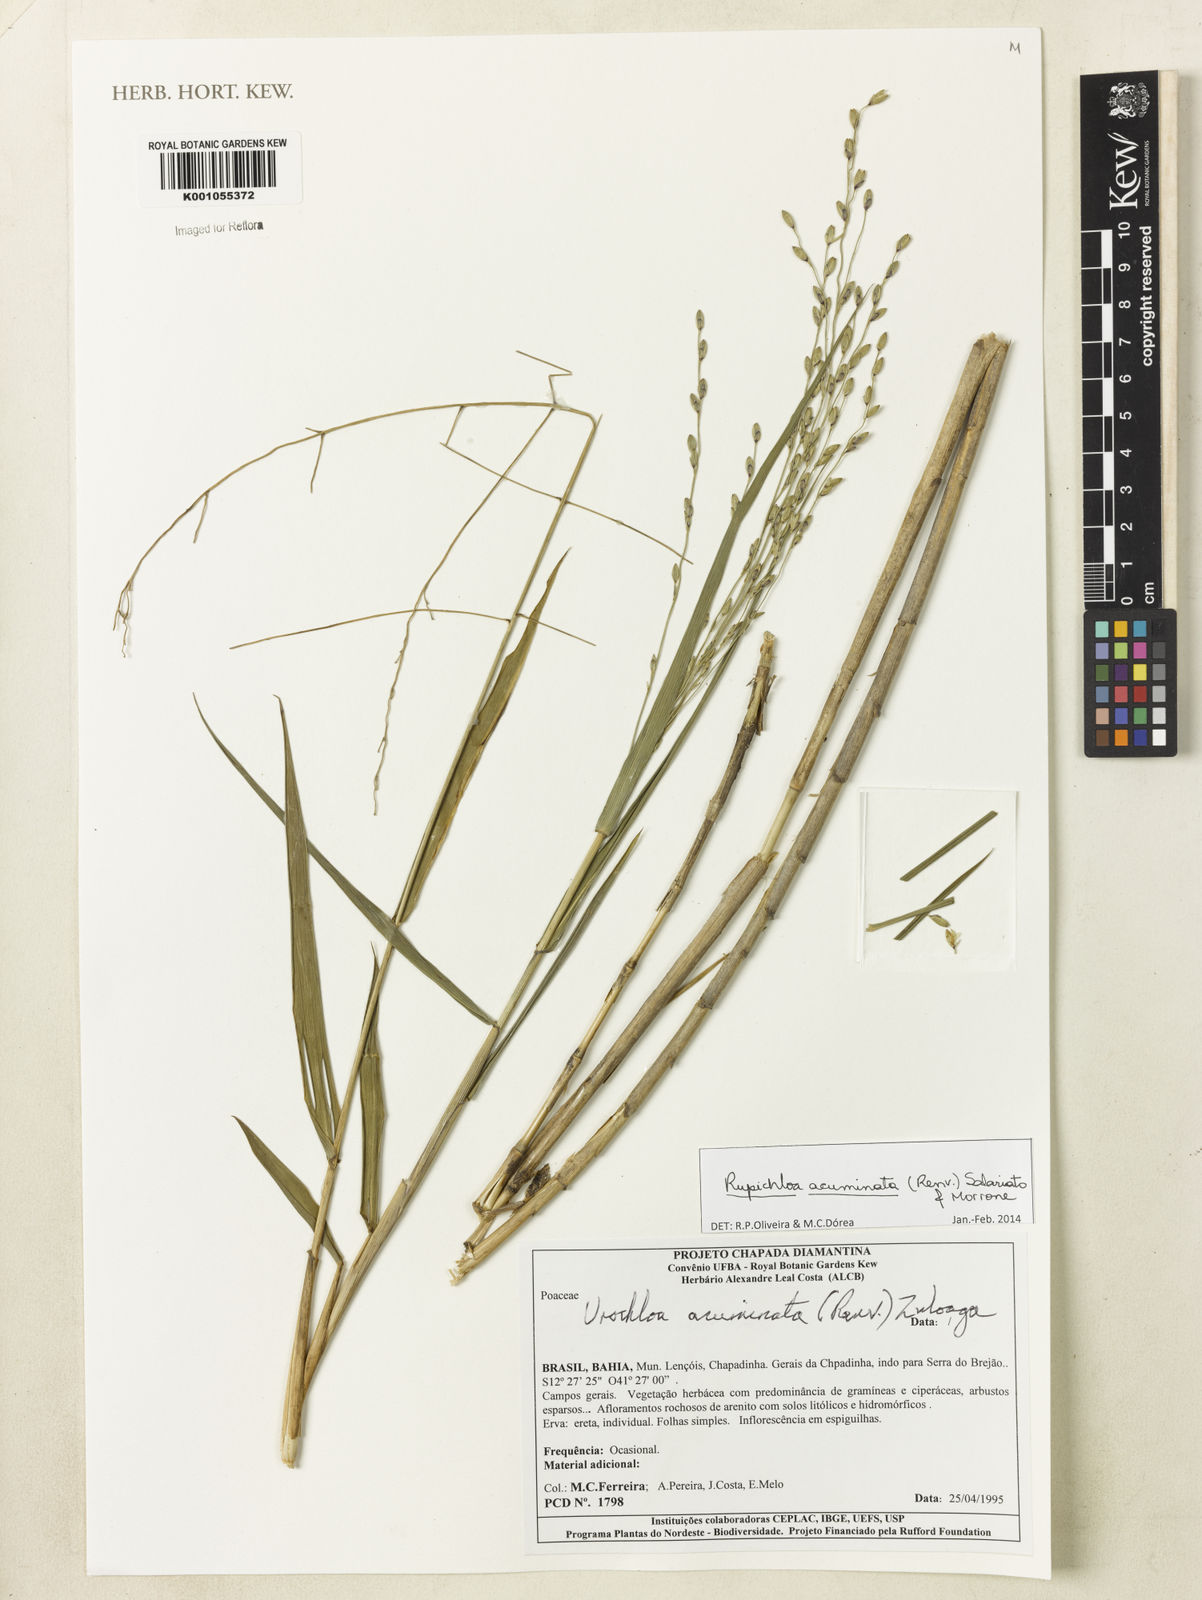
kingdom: Plantae
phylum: Tracheophyta
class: Liliopsida
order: Poales
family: Poaceae
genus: Rupichloa
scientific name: Rupichloa acuminata
